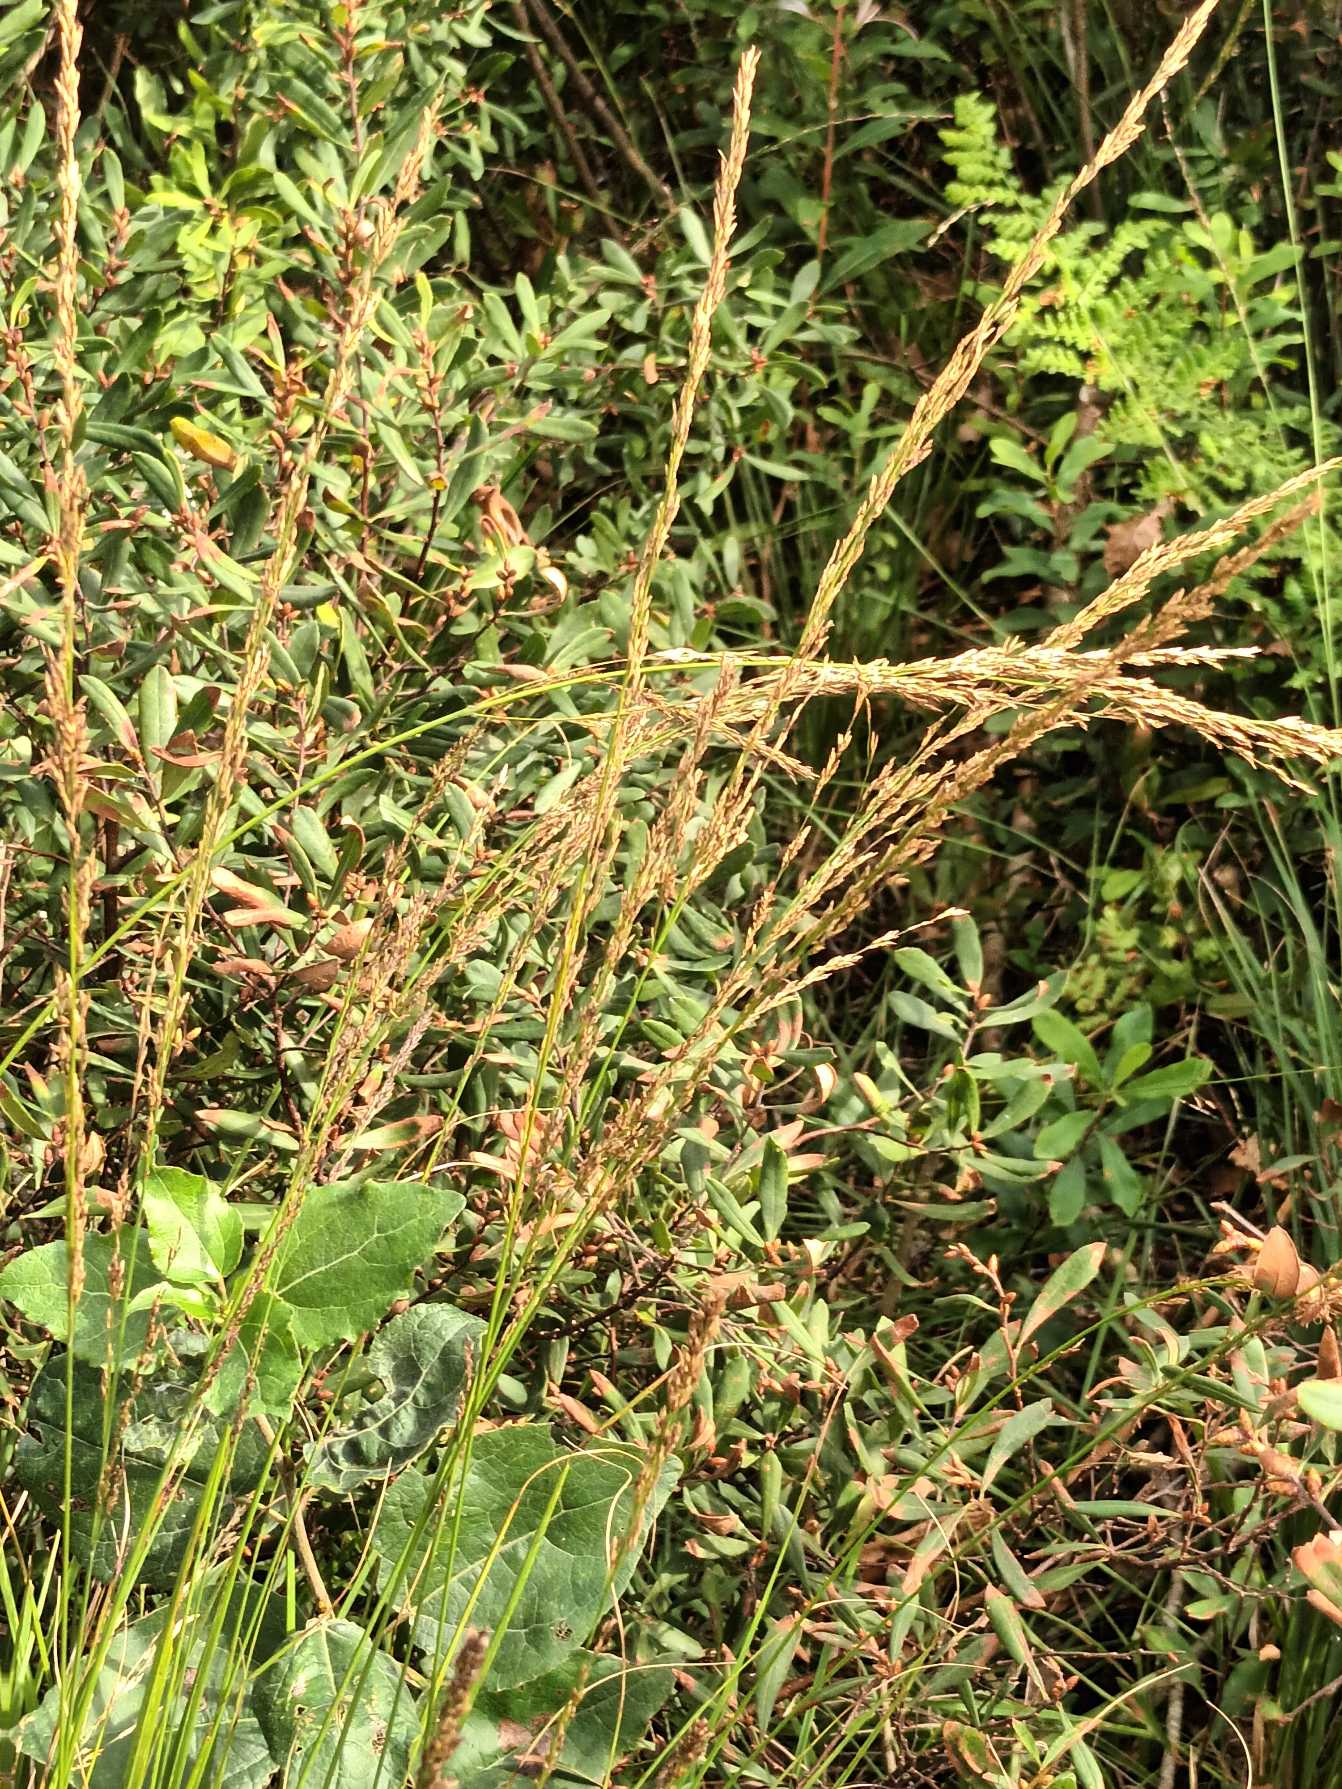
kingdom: Plantae
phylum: Tracheophyta
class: Liliopsida
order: Poales
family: Poaceae
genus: Molinia
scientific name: Molinia caerulea
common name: Blåtop
